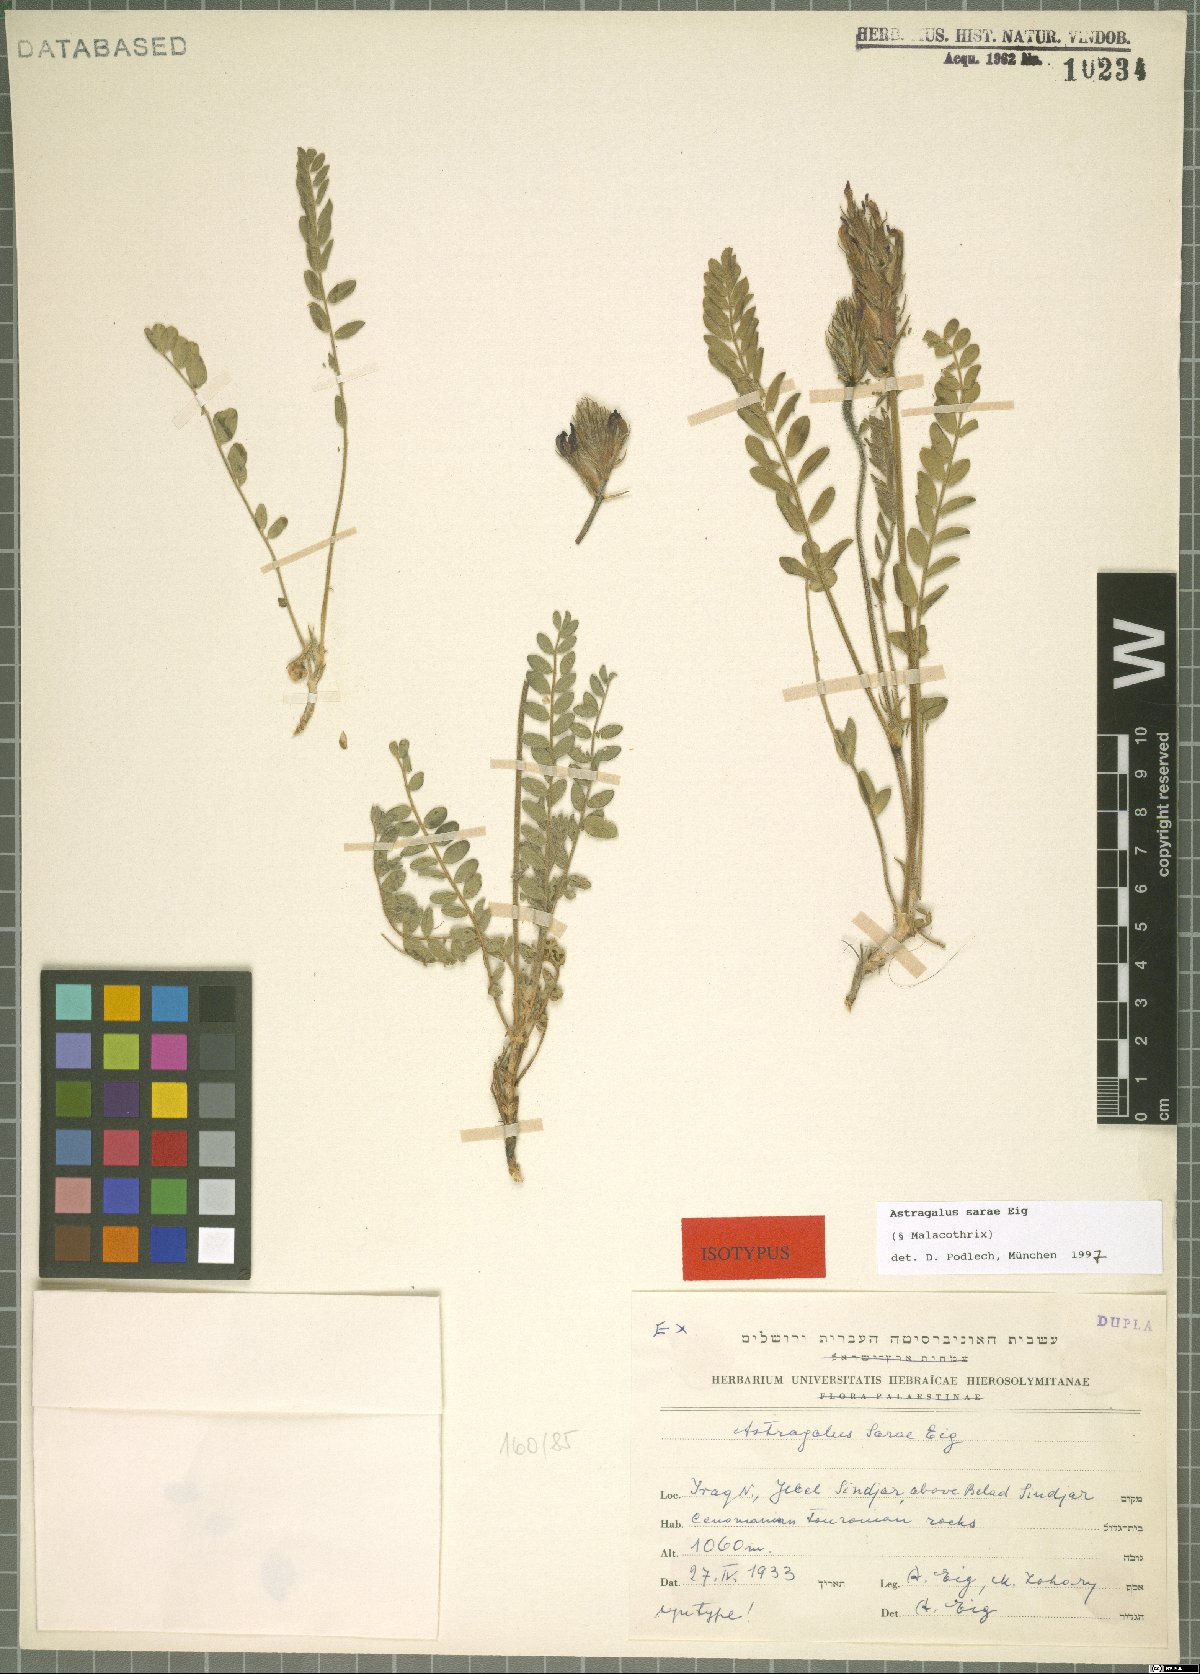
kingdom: Plantae
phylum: Tracheophyta
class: Magnoliopsida
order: Fabales
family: Fabaceae
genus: Astragalus
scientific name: Astragalus sarae
